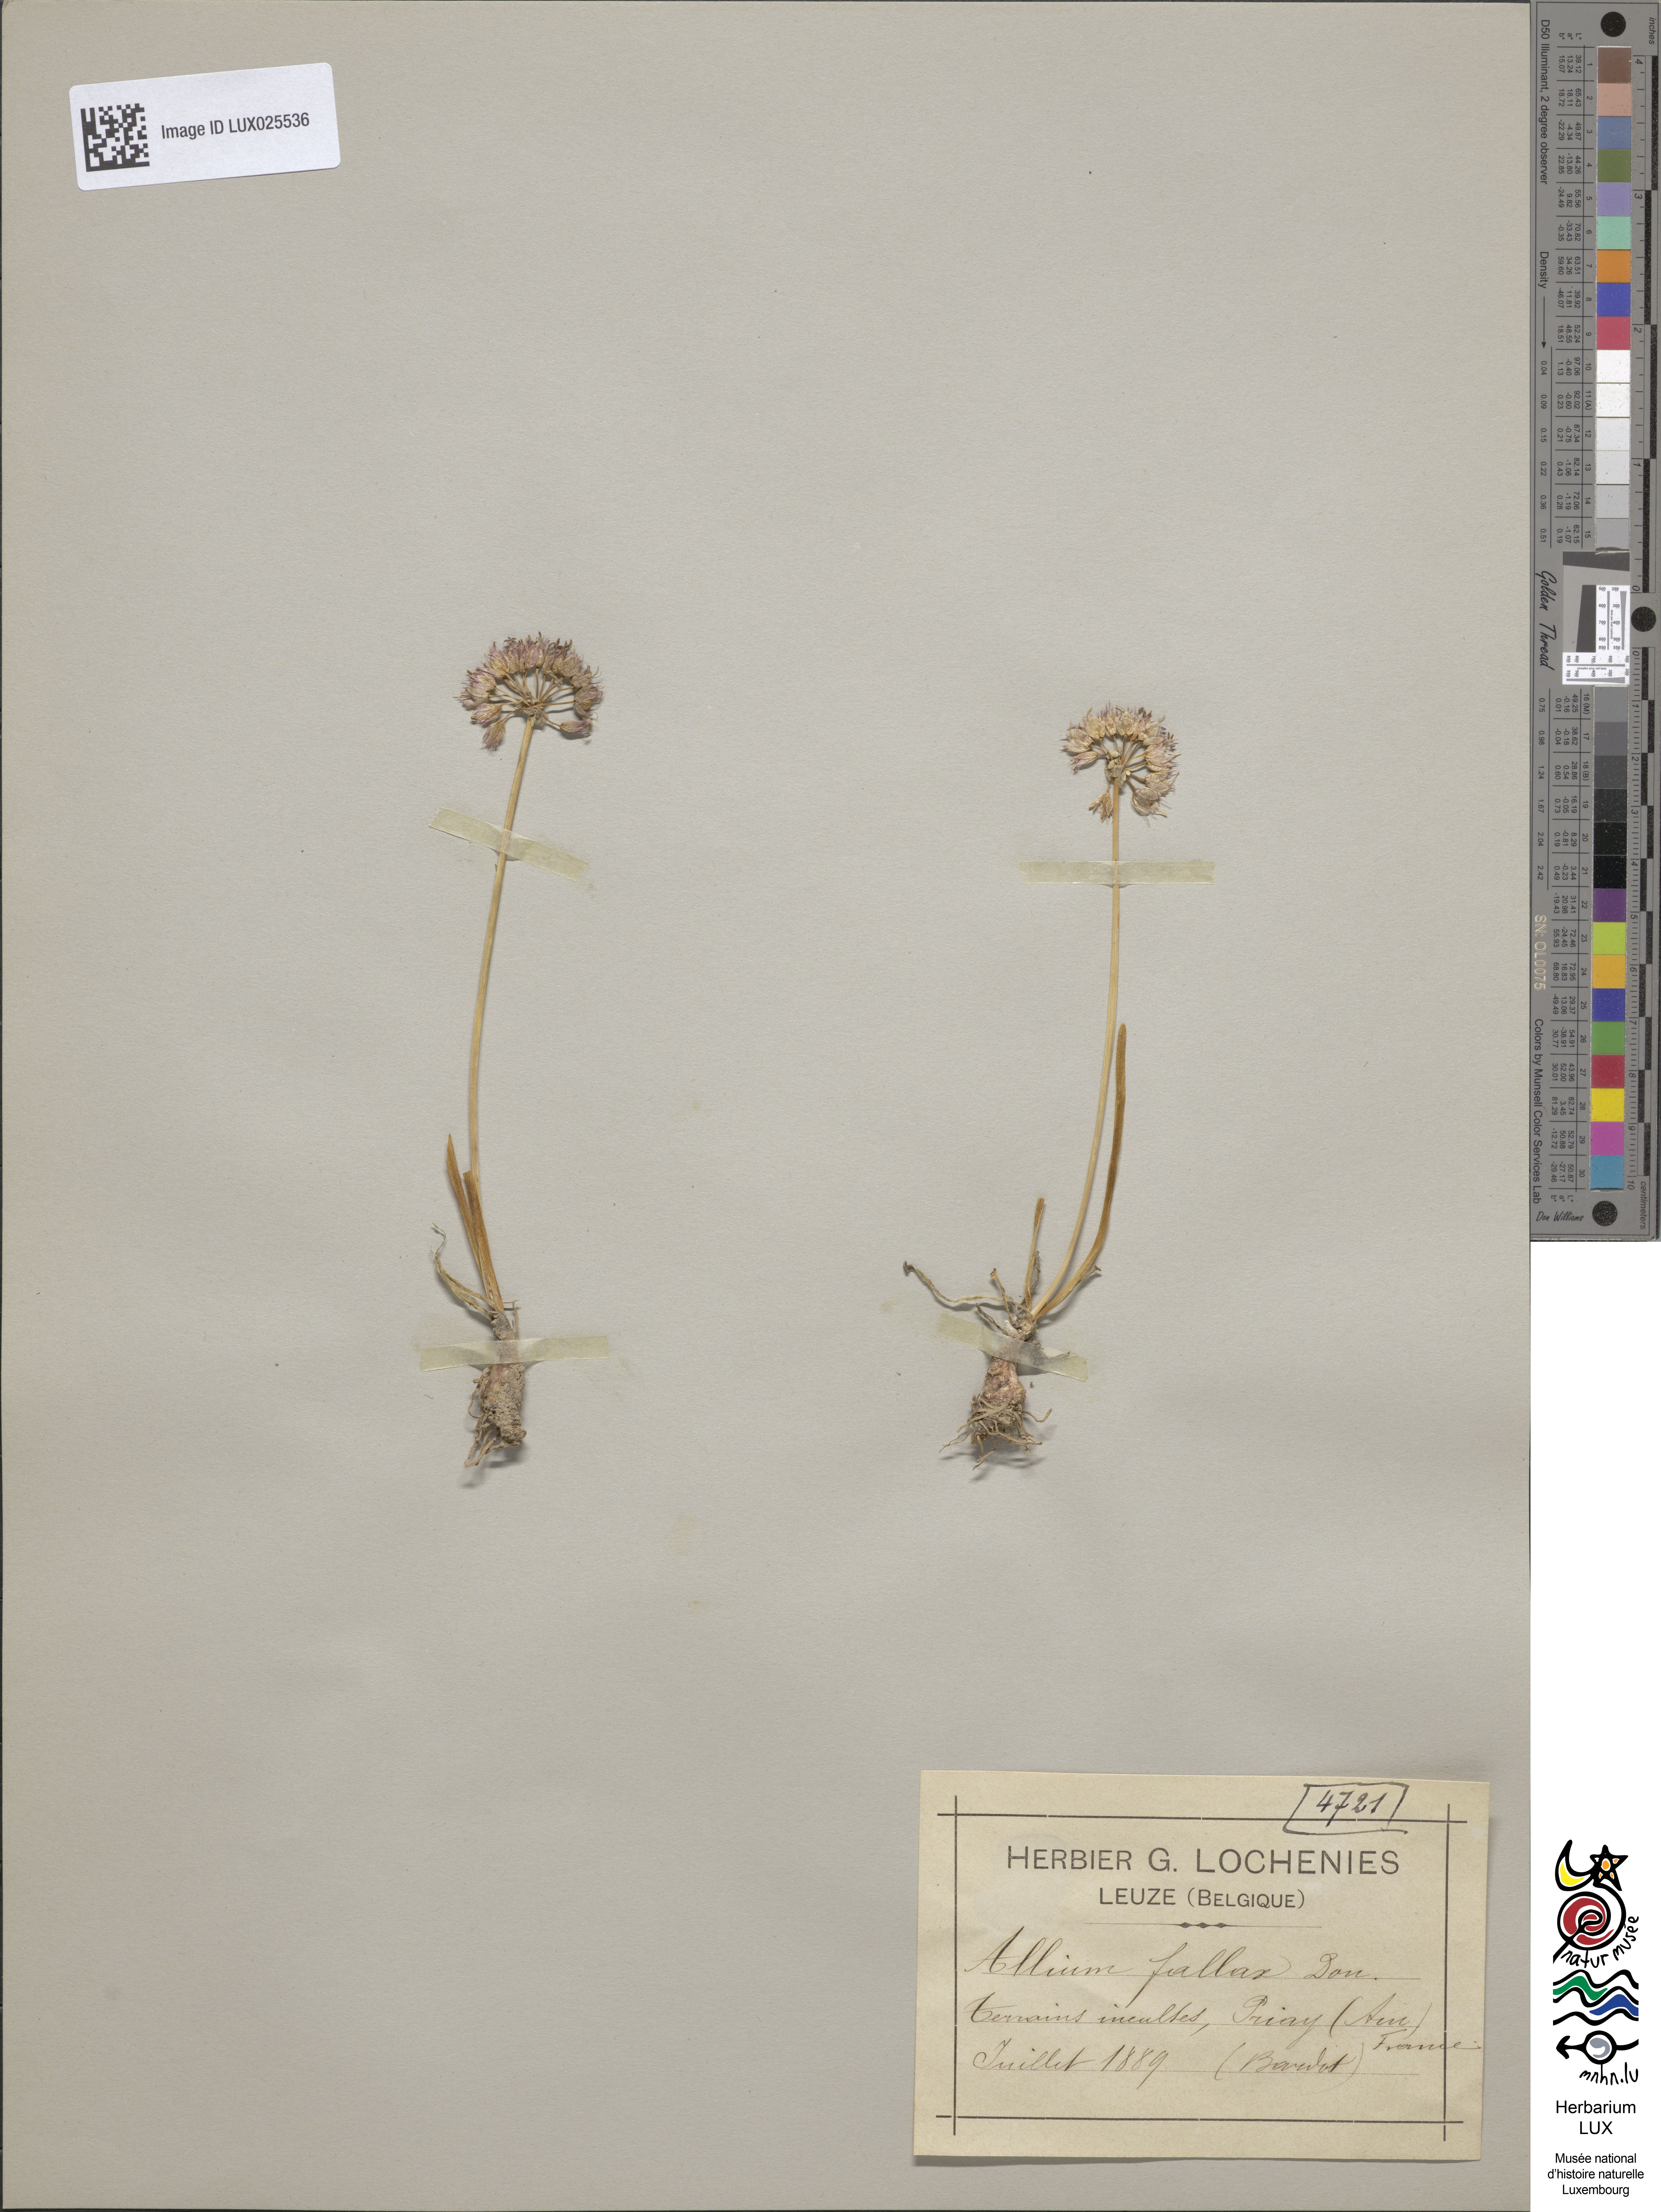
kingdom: Plantae
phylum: Tracheophyta
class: Liliopsida
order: Asparagales
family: Amaryllidaceae
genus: Allium
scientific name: Allium lusitanicum
